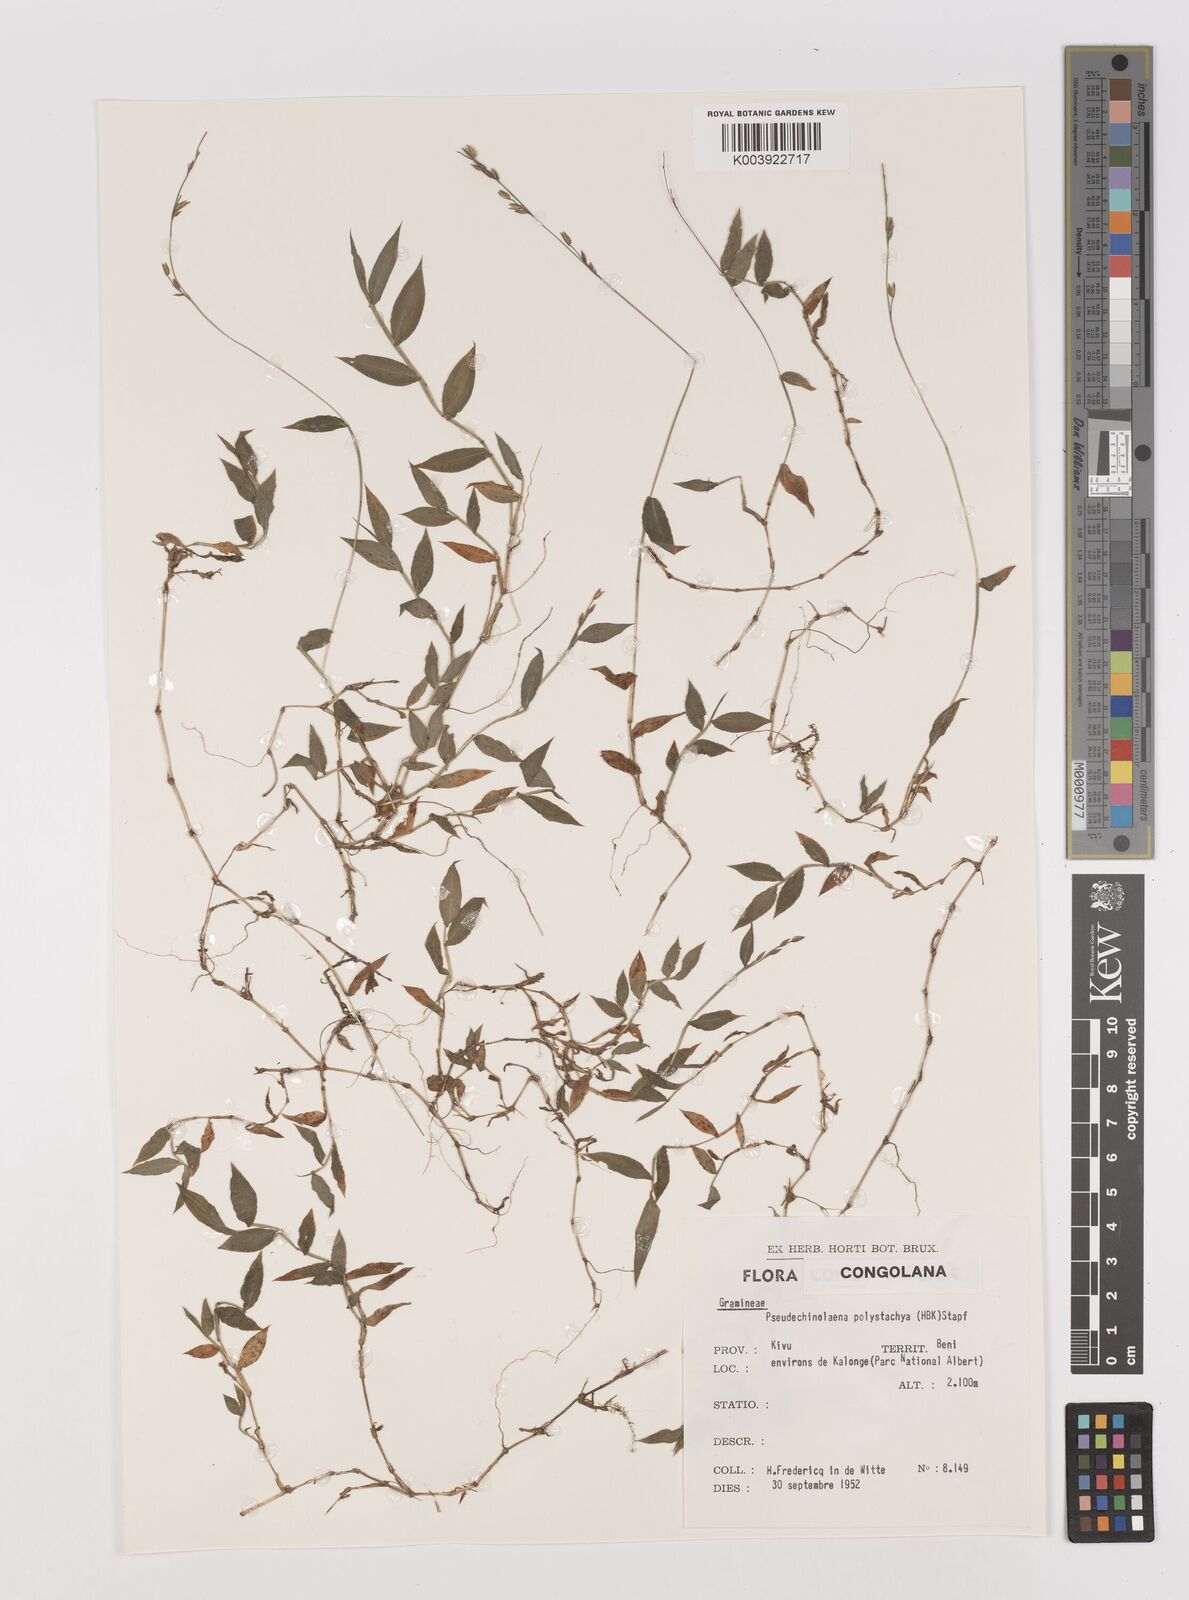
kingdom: Plantae
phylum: Tracheophyta
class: Liliopsida
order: Poales
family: Poaceae
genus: Pseudechinolaena
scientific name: Pseudechinolaena polystachya
